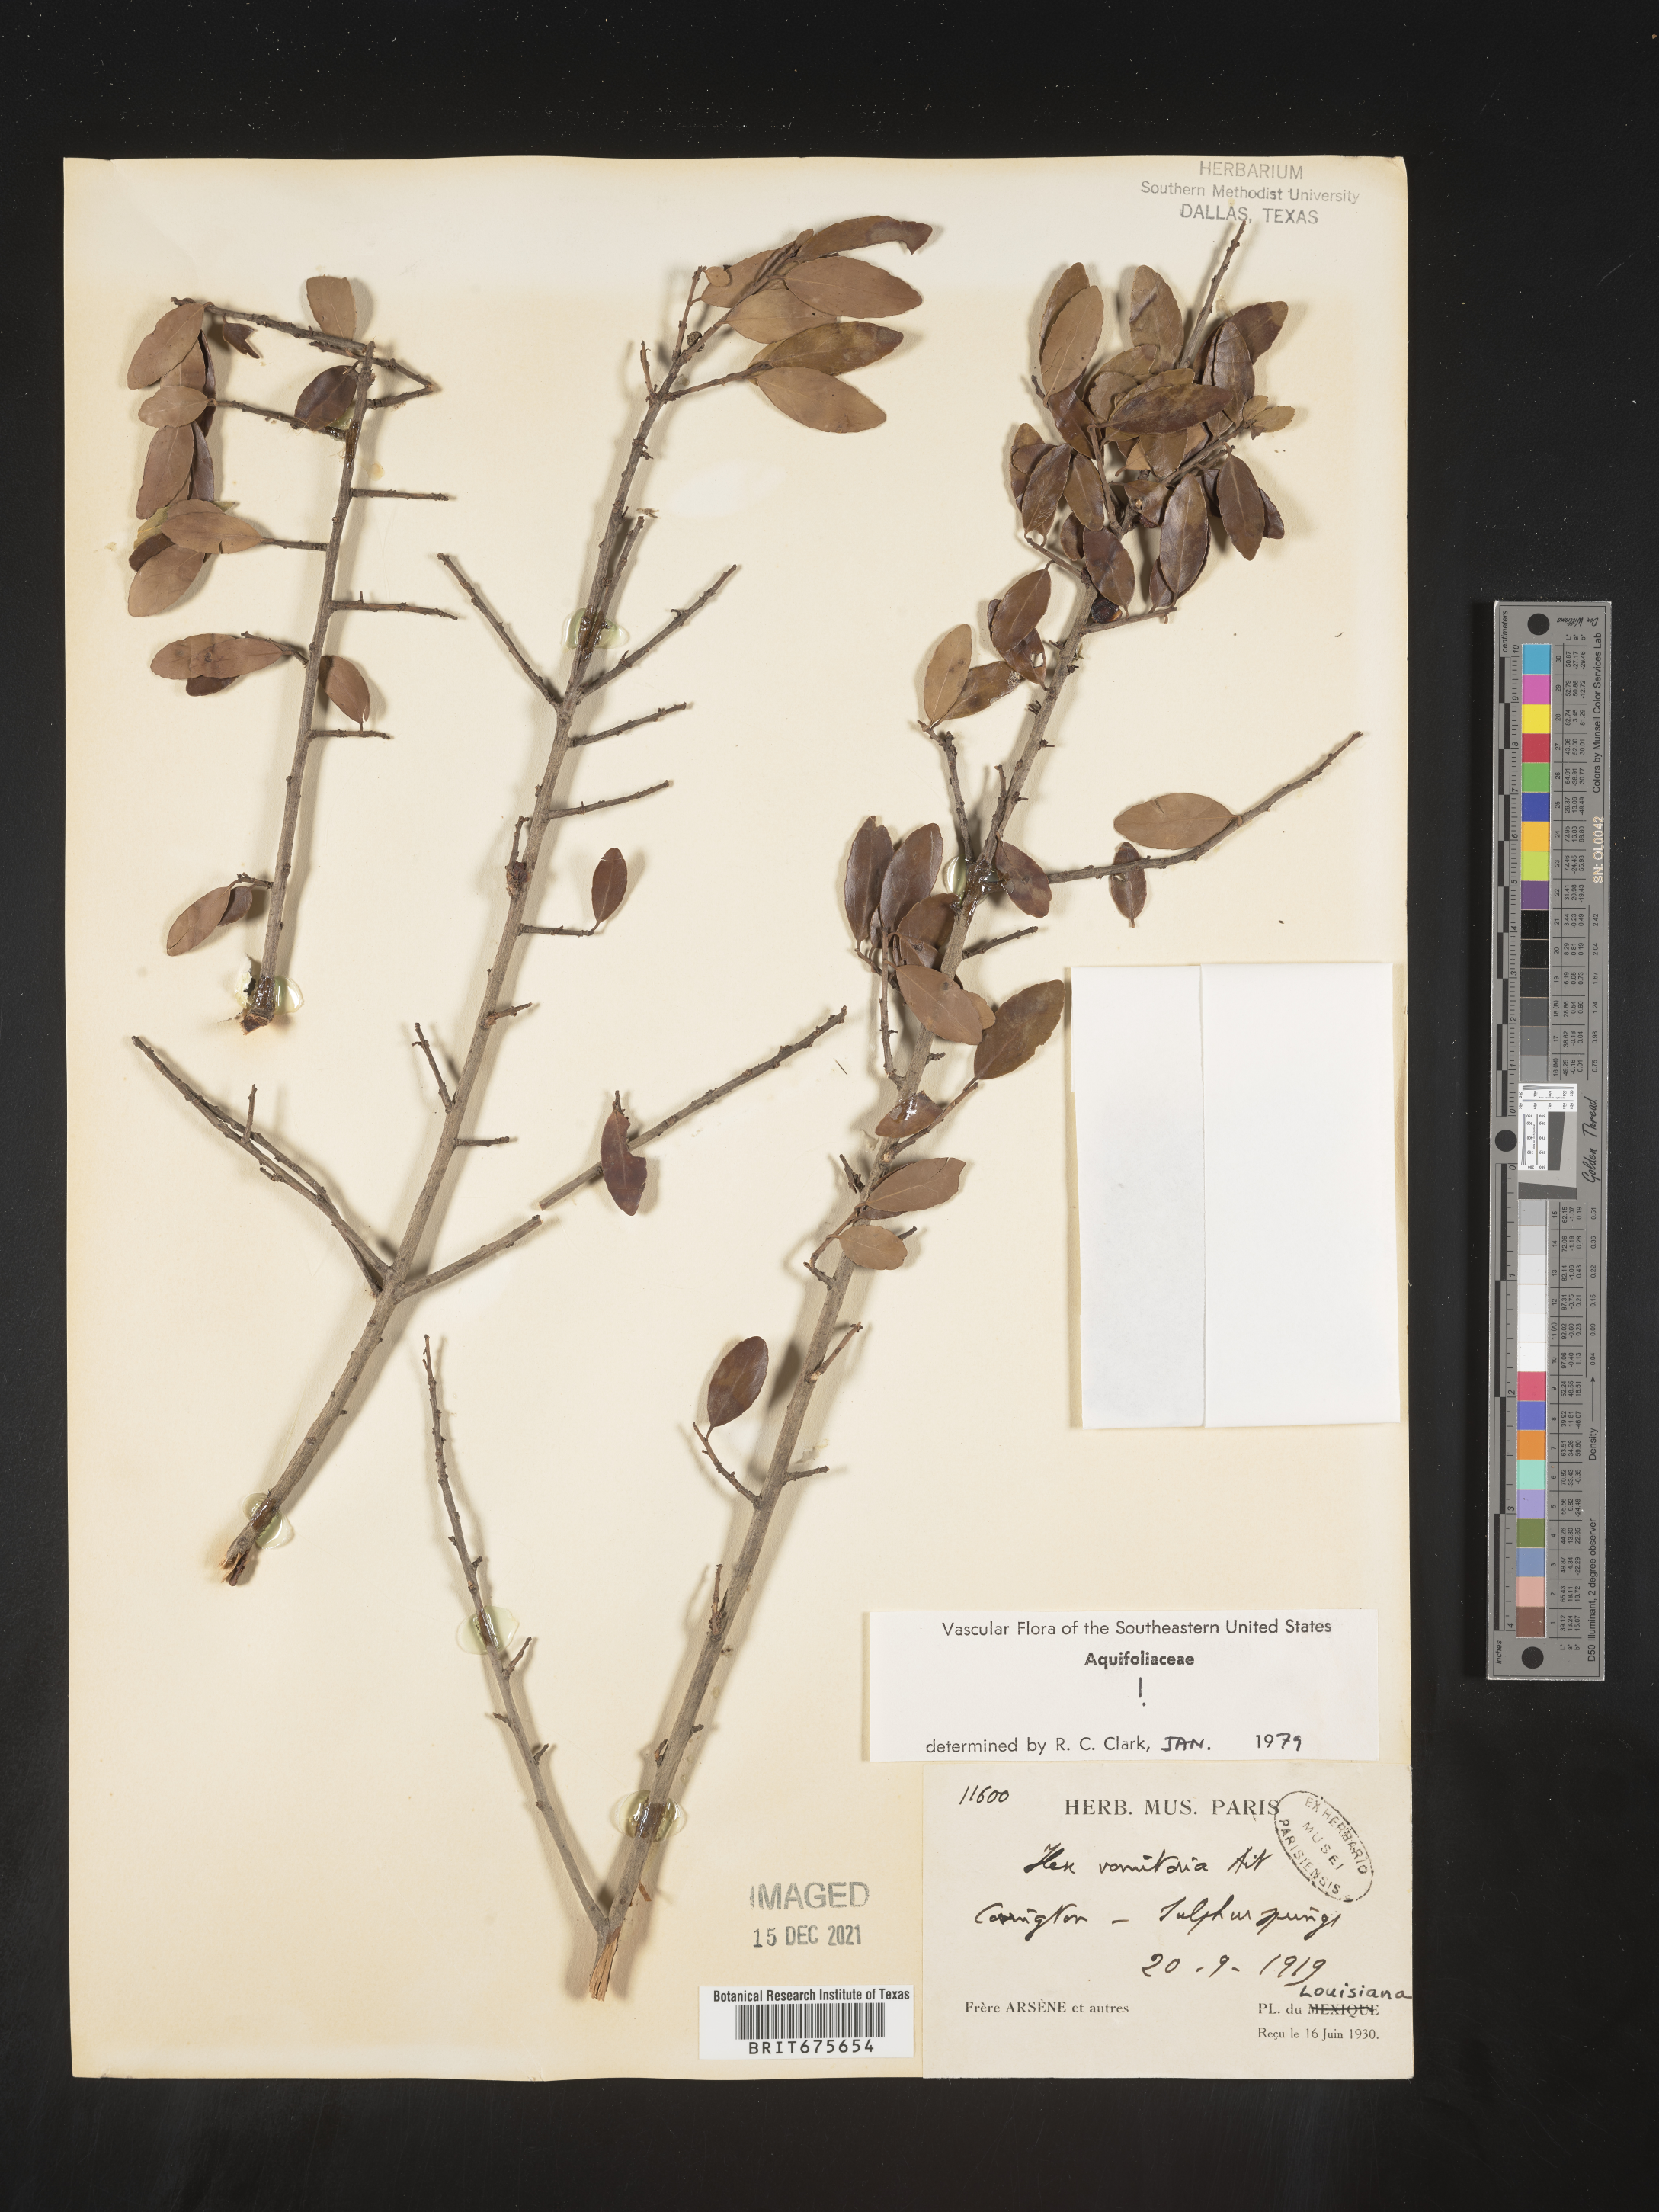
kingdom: Plantae
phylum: Tracheophyta
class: Magnoliopsida
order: Aquifoliales
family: Aquifoliaceae
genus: Ilex
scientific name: Ilex vomitoria
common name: Yaupon holly
